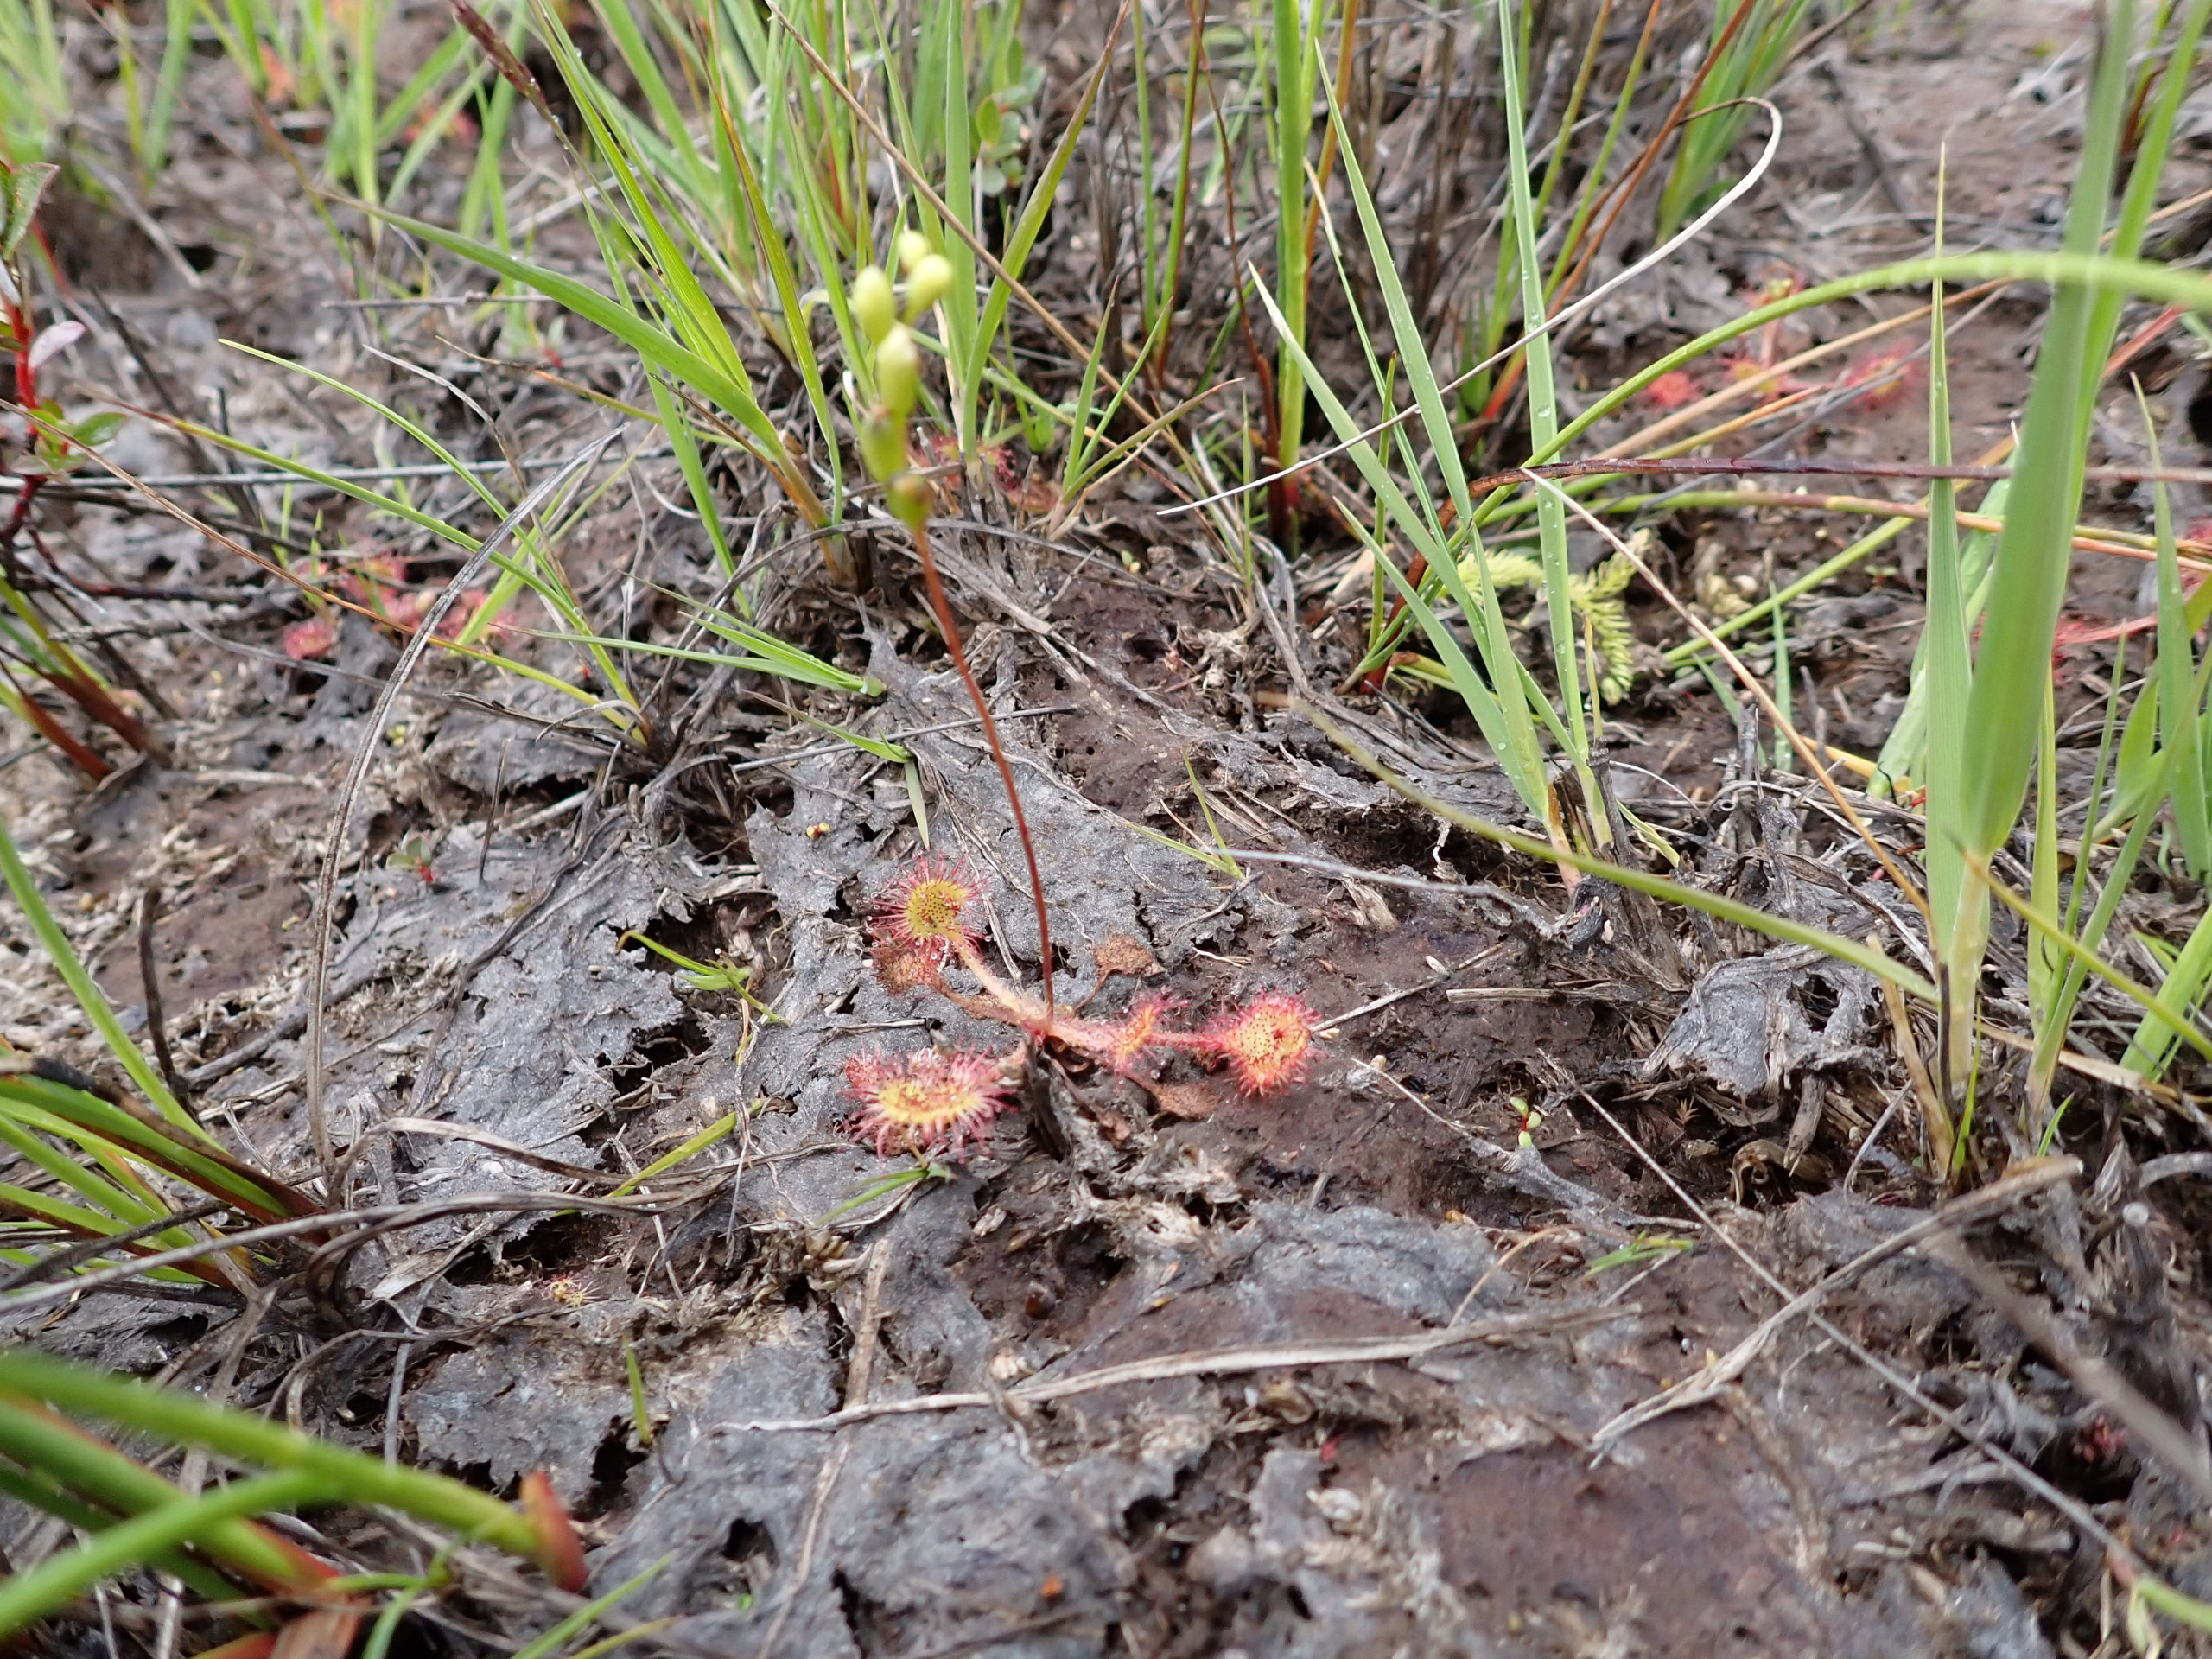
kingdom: Plantae
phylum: Tracheophyta
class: Magnoliopsida
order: Caryophyllales
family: Droseraceae
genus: Drosera
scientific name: Drosera rotundifolia
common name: Rundbladet soldug
